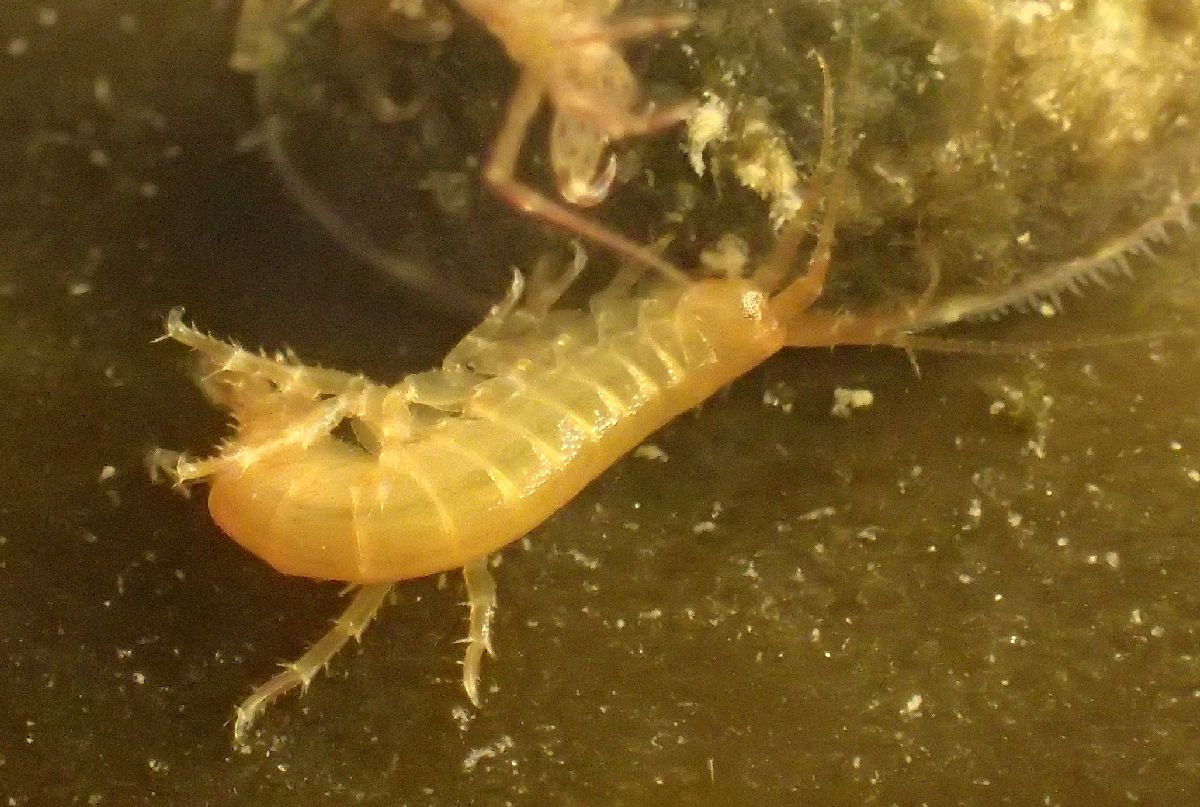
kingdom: Animalia
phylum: Arthropoda
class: Malacostraca
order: Amphipoda
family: Gammaridae
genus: Gammarus
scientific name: Gammarus oceanicus
